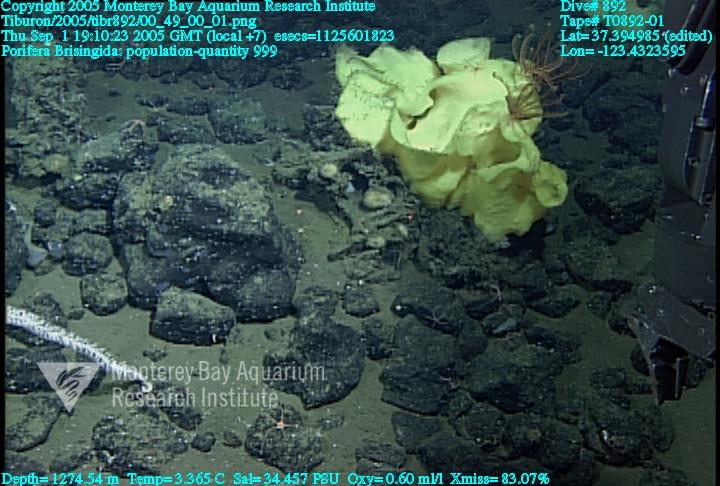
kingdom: Animalia
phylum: Porifera
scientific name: Porifera
